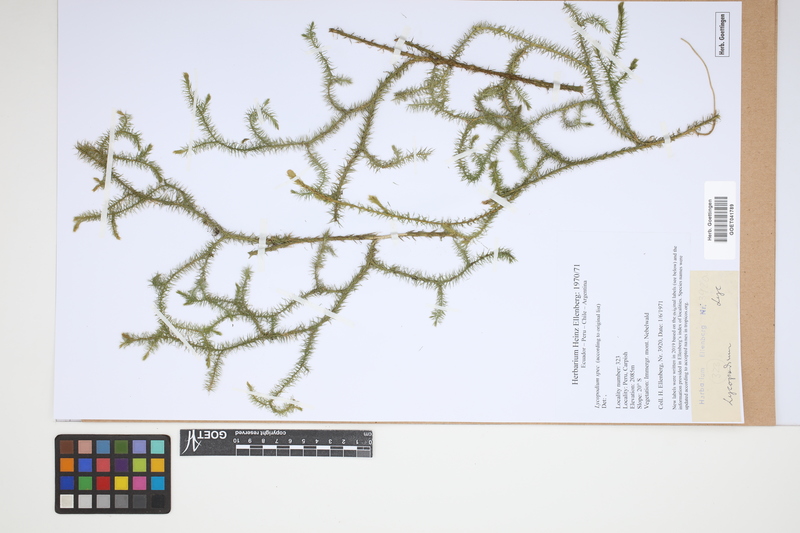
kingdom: Plantae
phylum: Tracheophyta
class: Lycopodiopsida
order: Lycopodiales
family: Lycopodiaceae
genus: Lycopodium
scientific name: Lycopodium
